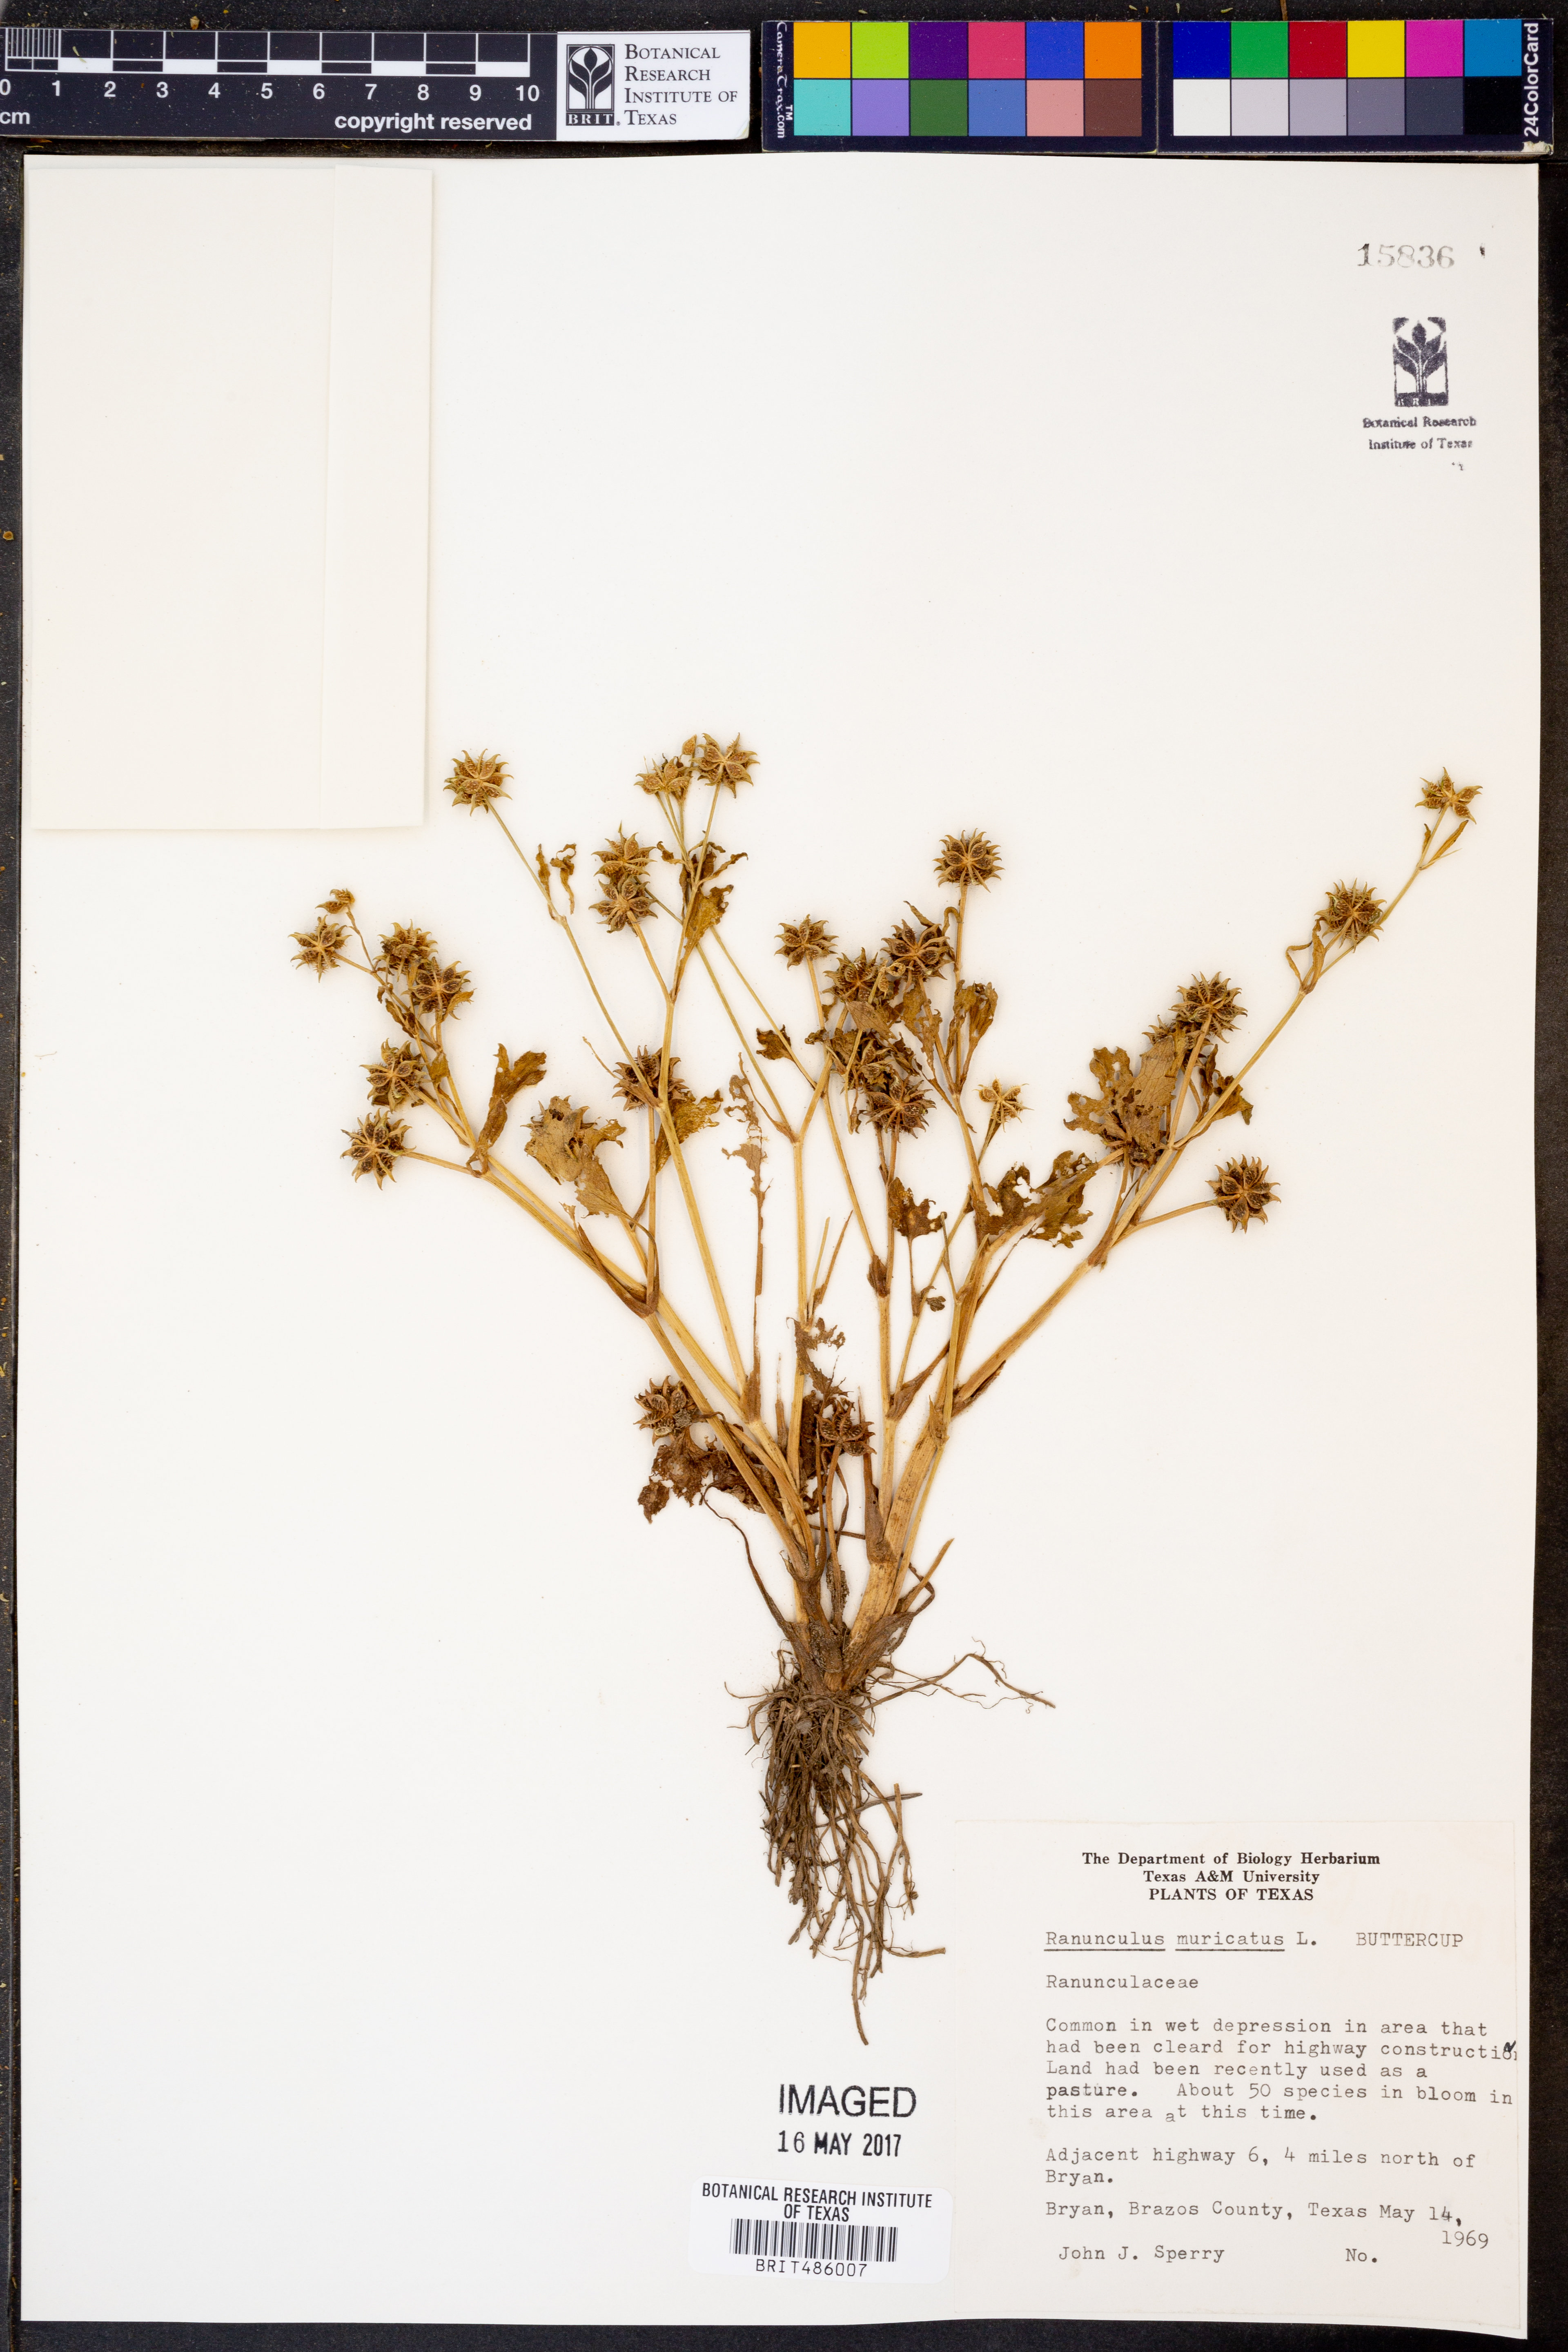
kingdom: Plantae
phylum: Tracheophyta
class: Magnoliopsida
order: Ranunculales
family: Ranunculaceae
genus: Ranunculus
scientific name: Ranunculus muricatus
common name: Rough-fruited buttercup
